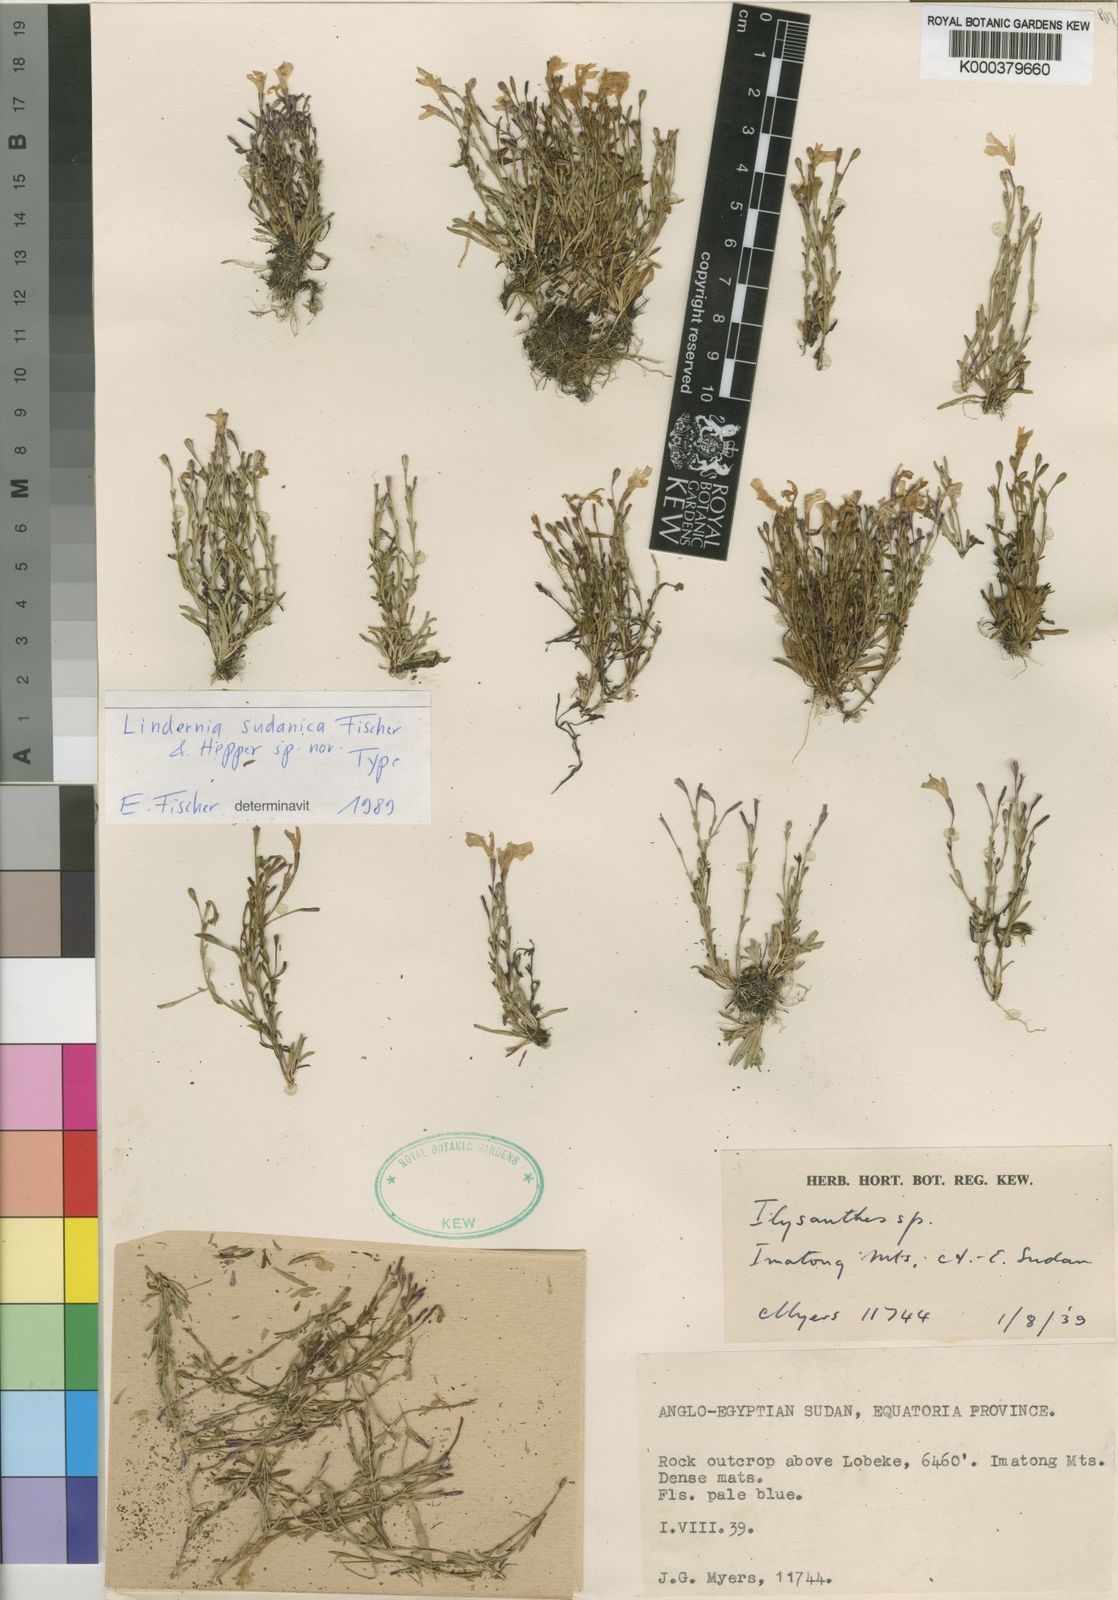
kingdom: Plantae
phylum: Tracheophyta
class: Magnoliopsida
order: Lamiales
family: Linderniaceae
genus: Craterostigma
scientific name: Craterostigma sudanicum
